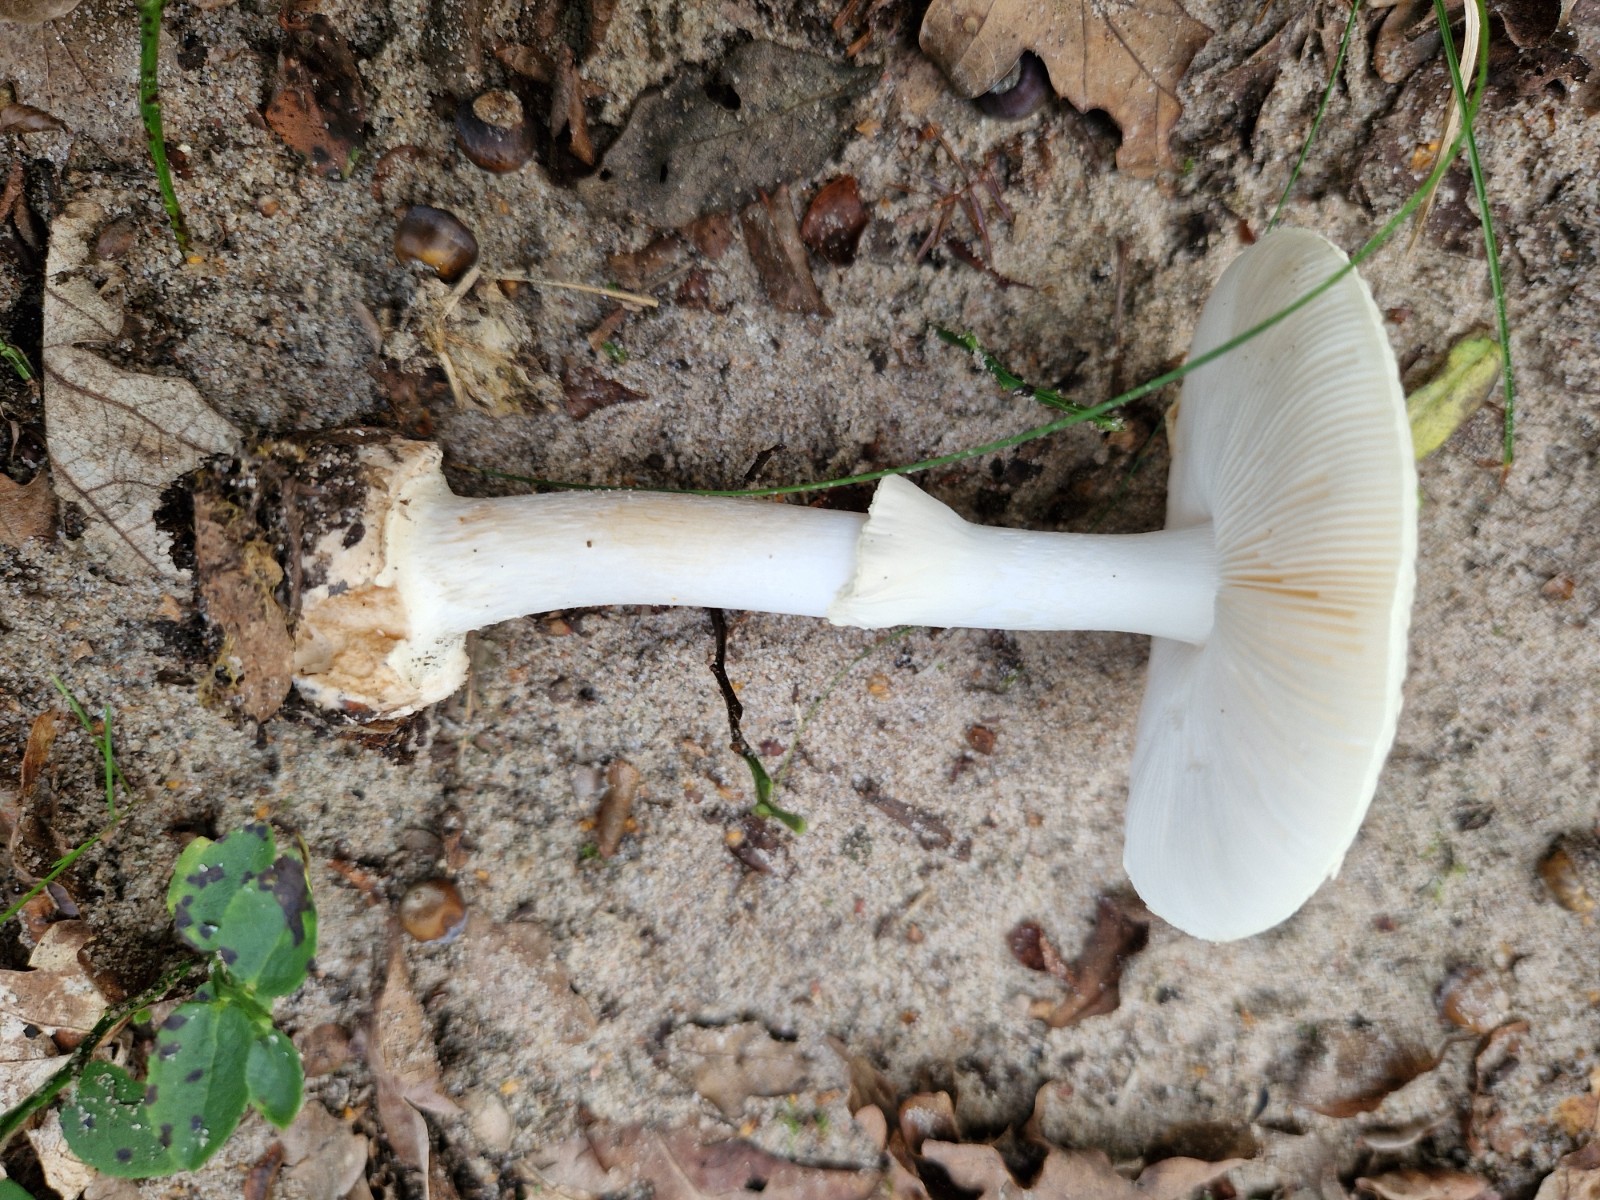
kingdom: Fungi
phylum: Basidiomycota
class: Agaricomycetes
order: Agaricales
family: Amanitaceae
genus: Amanita
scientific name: Amanita
